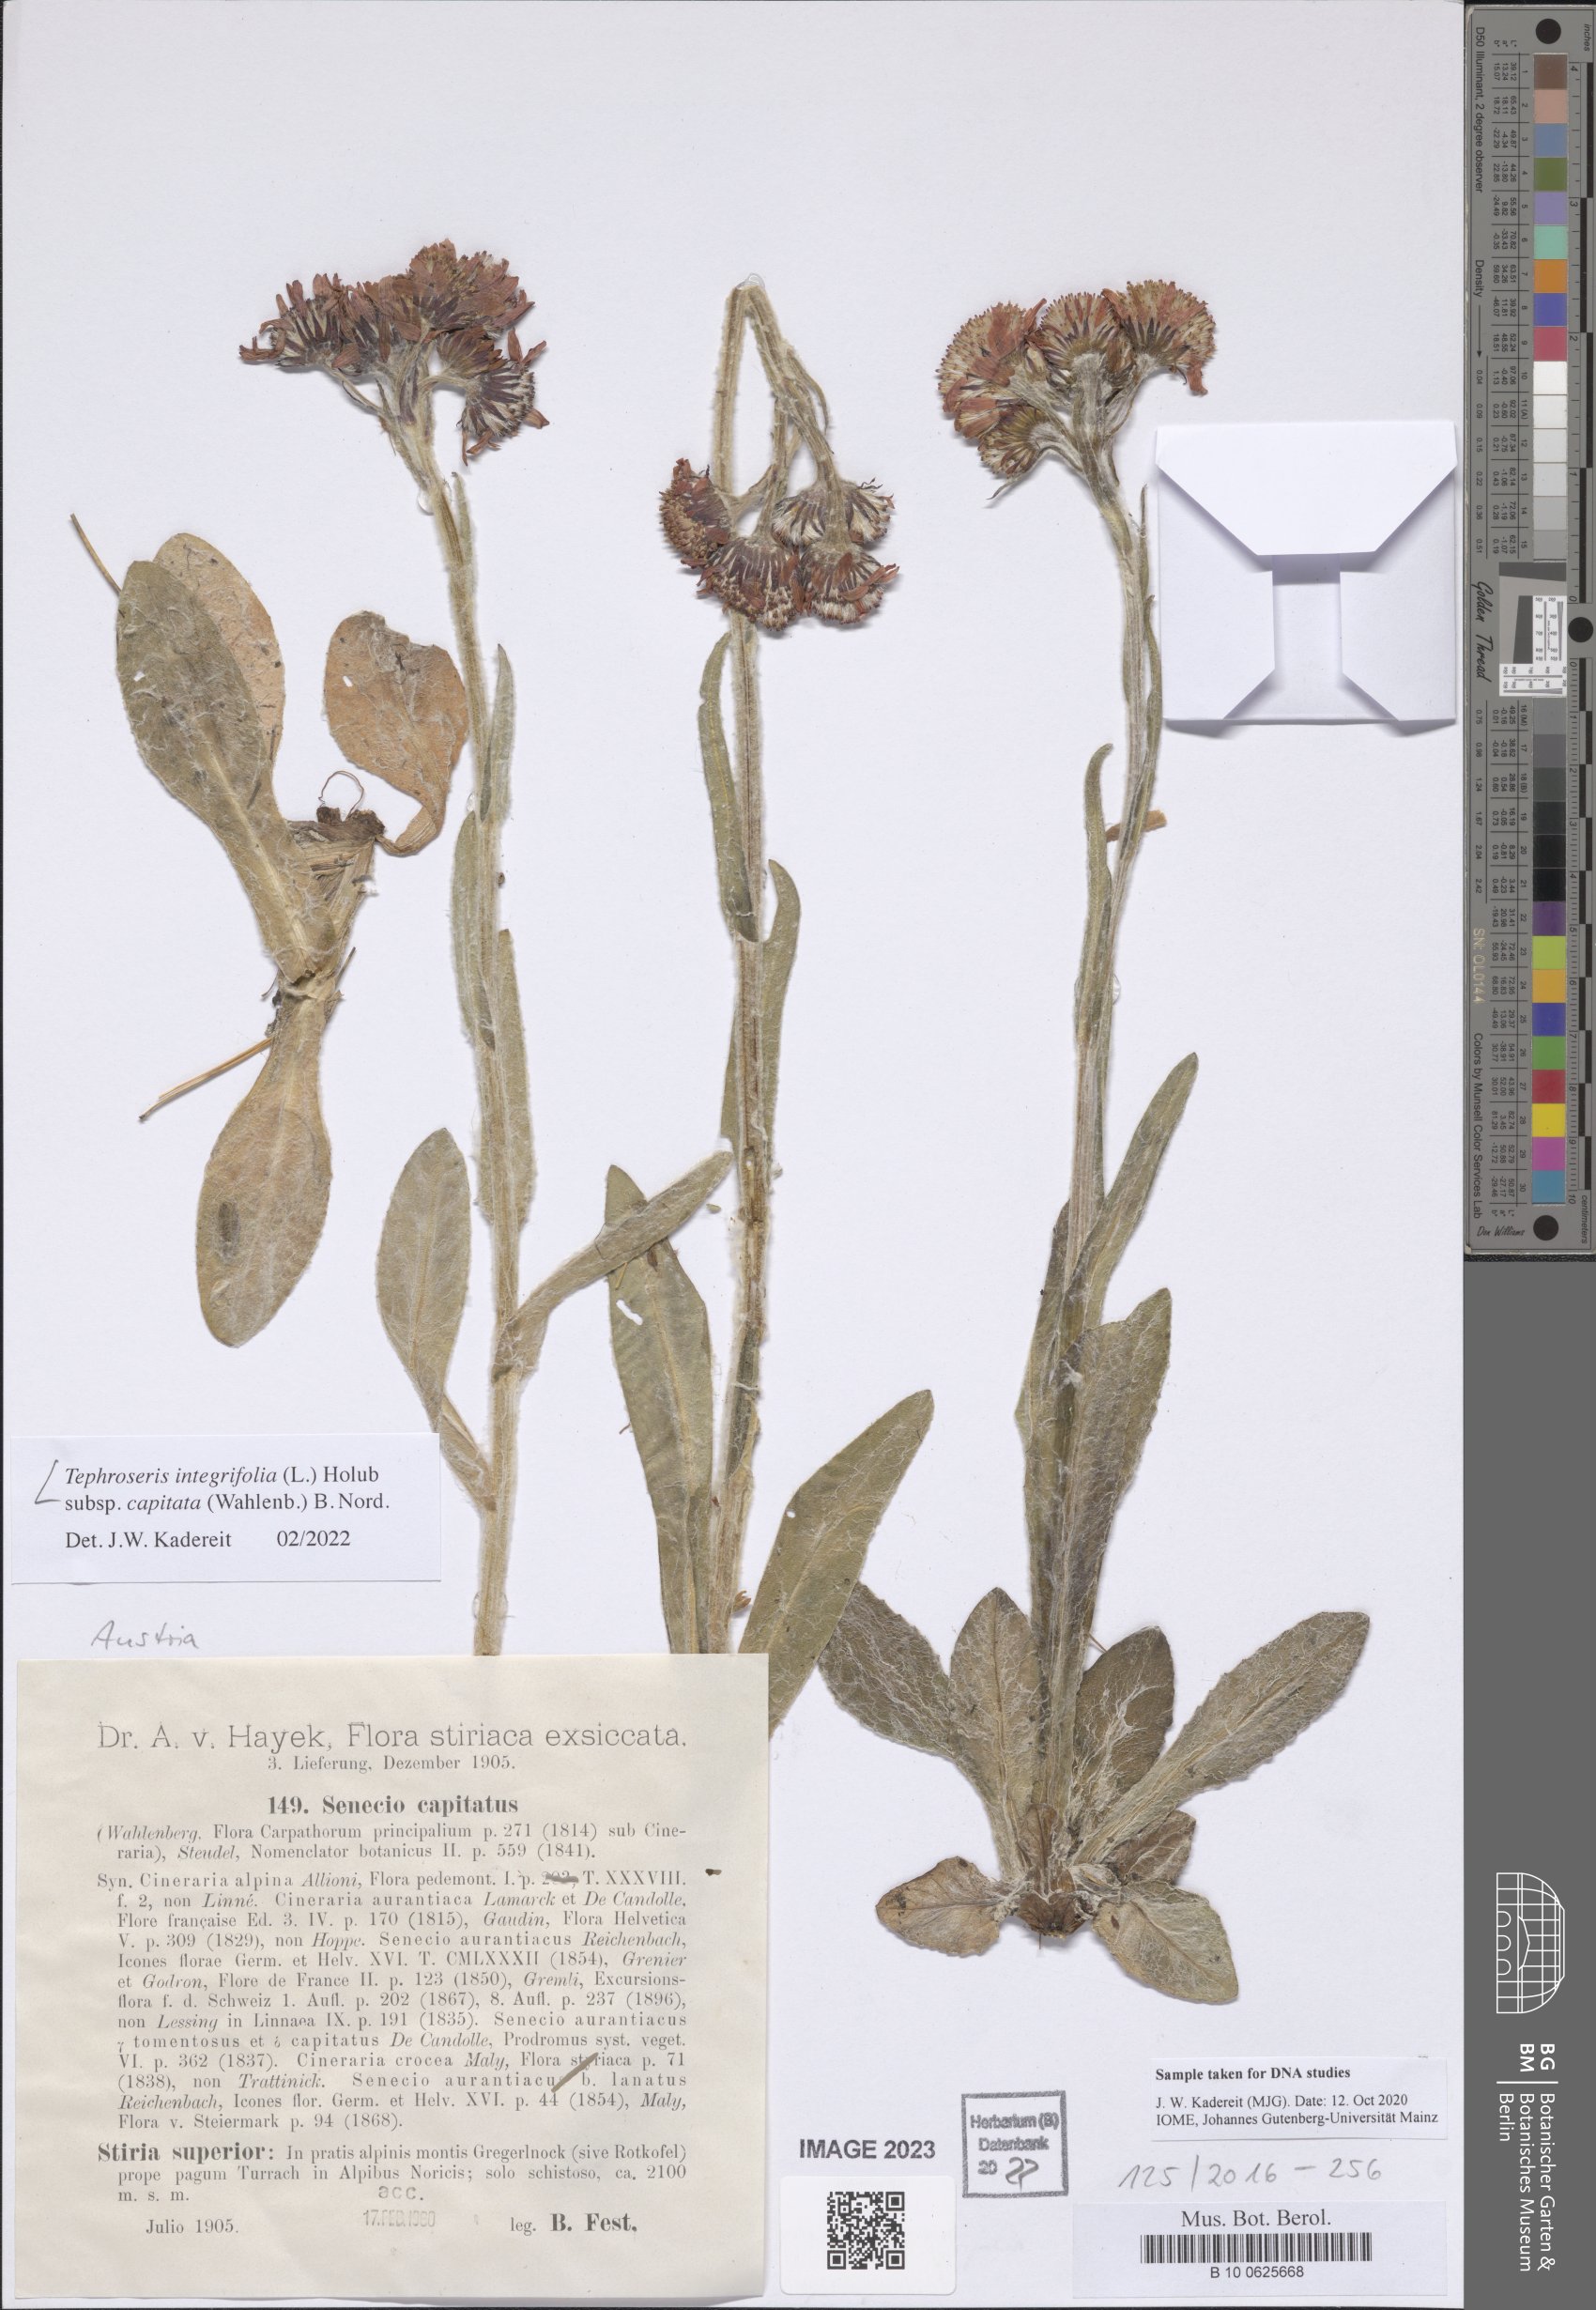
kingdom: Plantae
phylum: Tracheophyta
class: Magnoliopsida
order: Asterales
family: Asteraceae
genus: Tephroseris
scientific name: Tephroseris integrifolia
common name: Field fleawort
